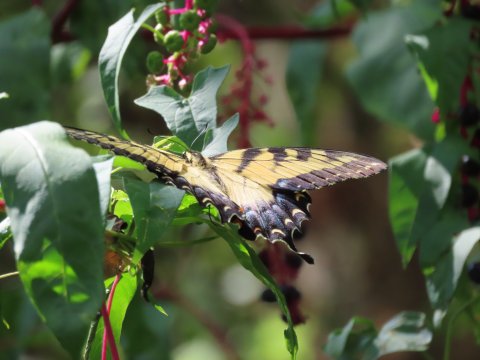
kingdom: Animalia
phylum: Arthropoda
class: Insecta
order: Lepidoptera
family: Papilionidae
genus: Pterourus
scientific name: Pterourus glaucus
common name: Eastern Tiger Swallowtail
